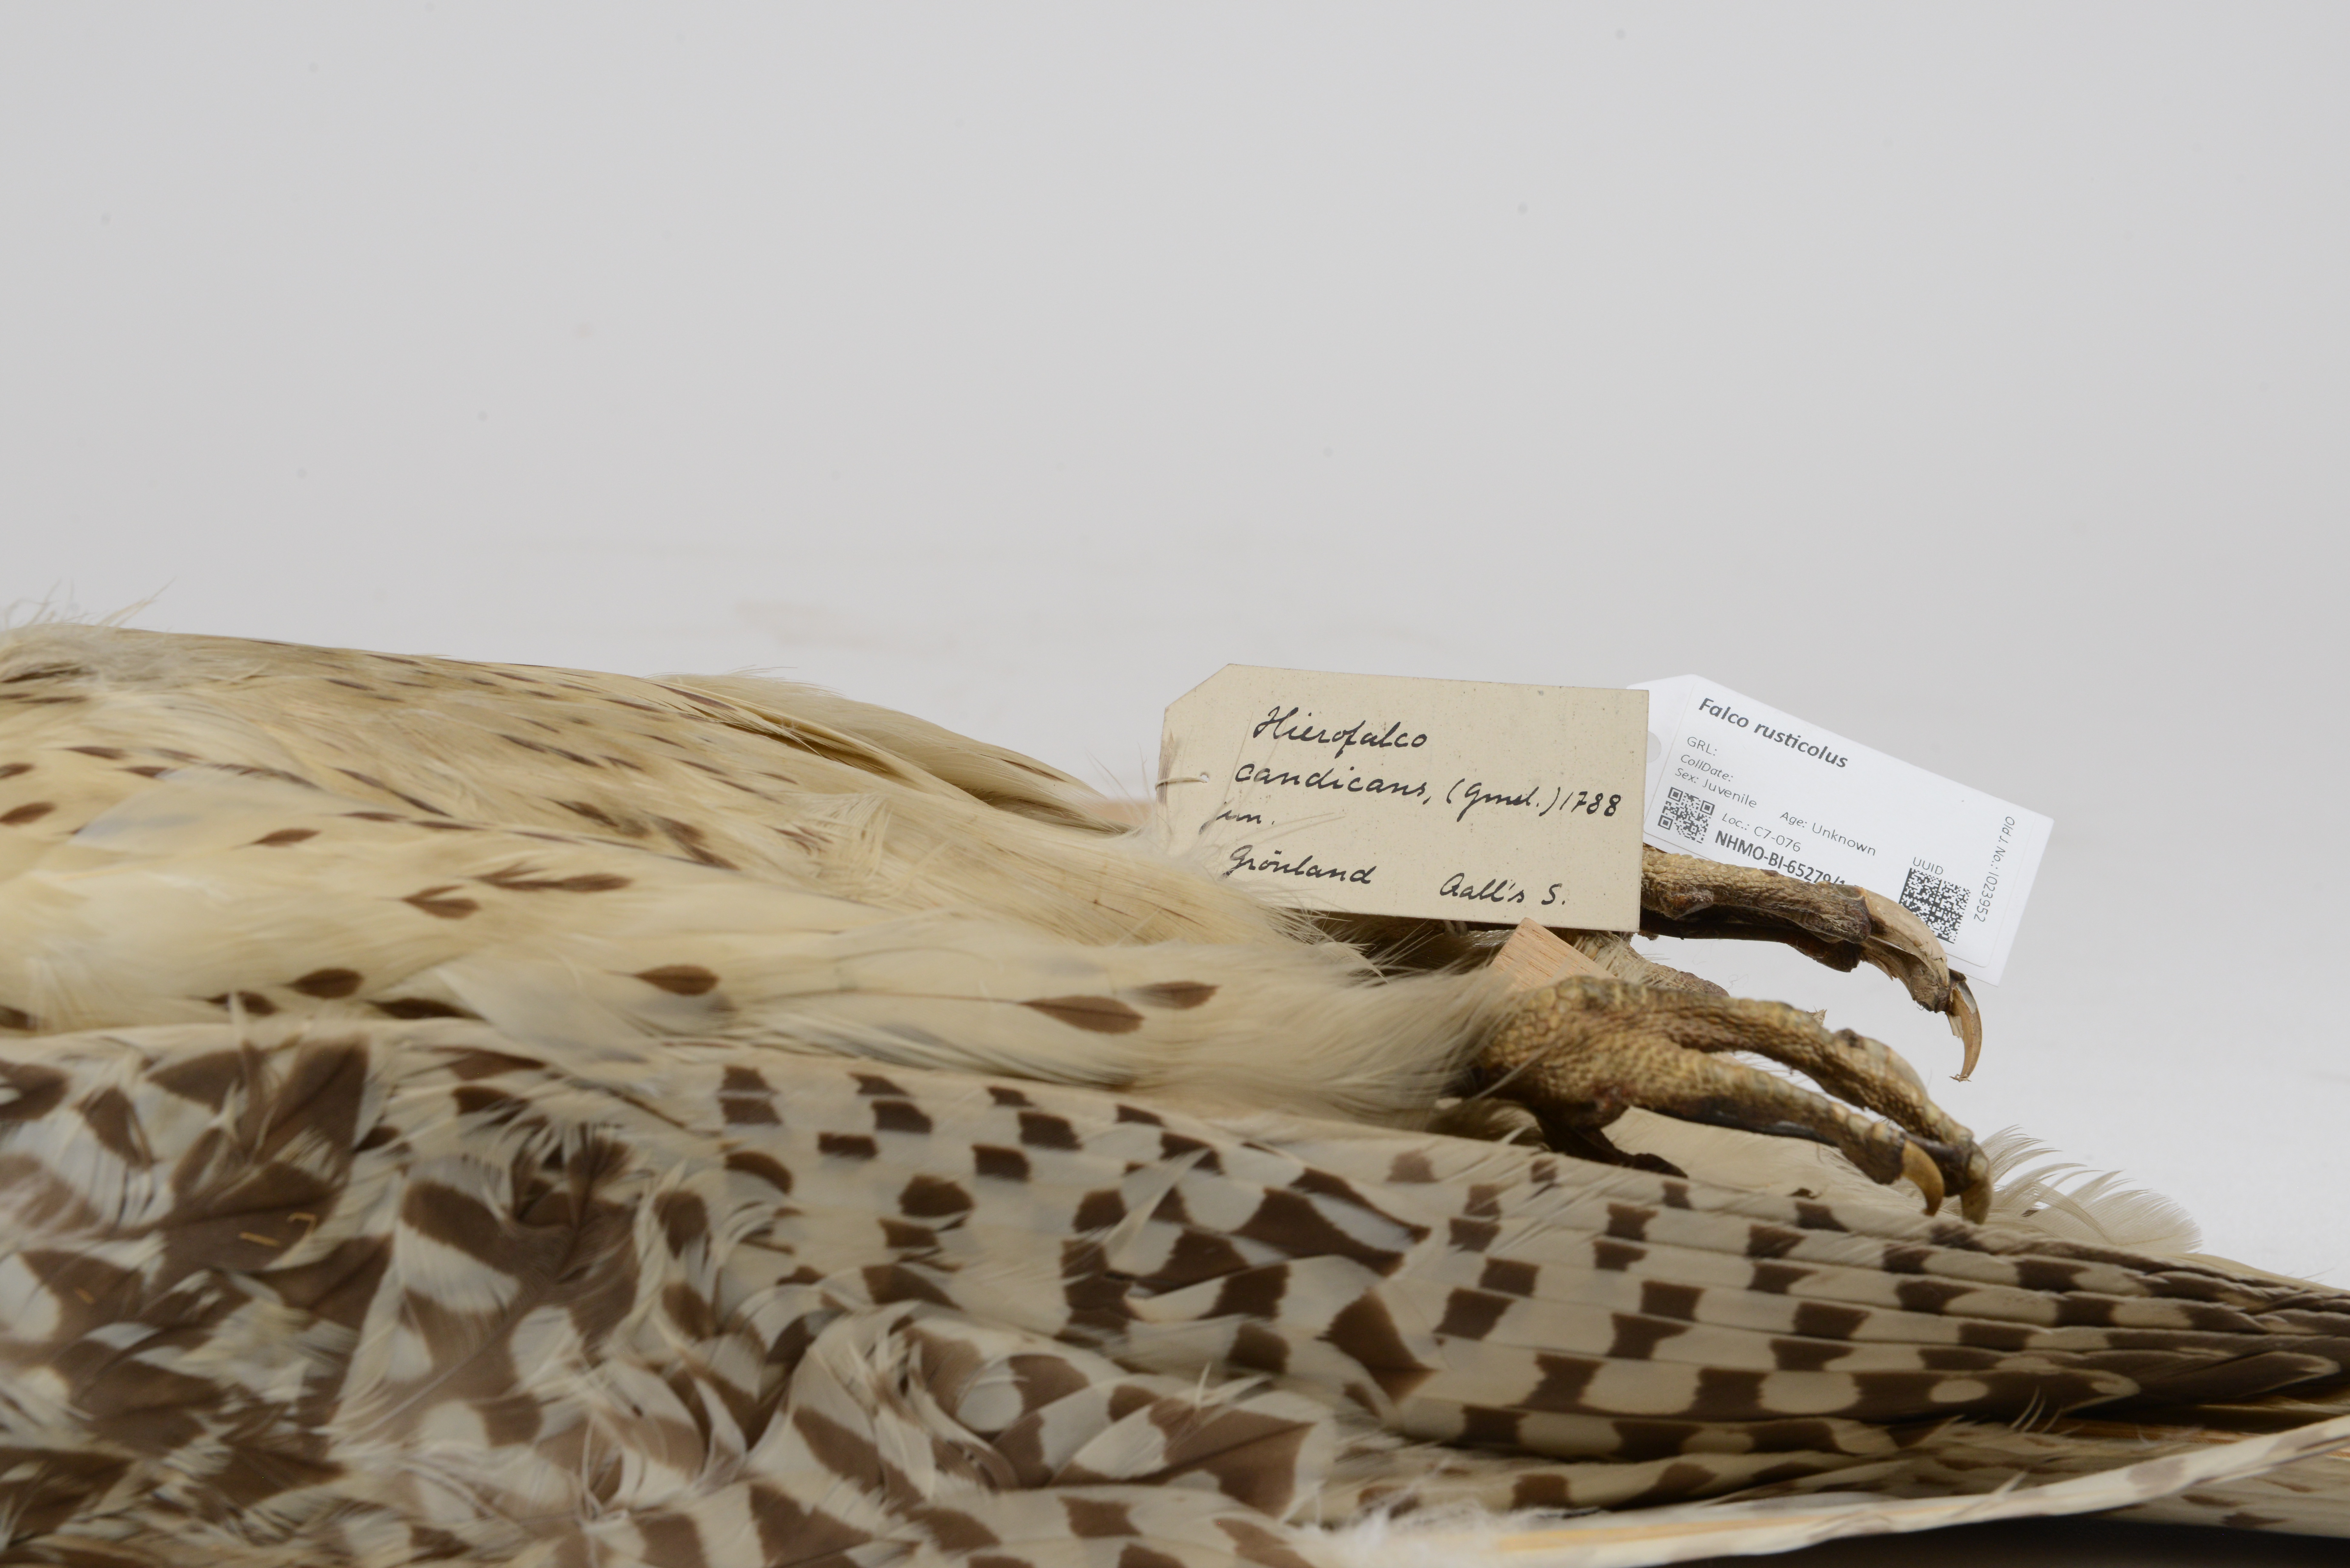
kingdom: Animalia
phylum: Chordata
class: Aves
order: Falconiformes
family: Falconidae
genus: Falco
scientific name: Falco rusticolus
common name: Gyrfalcon
